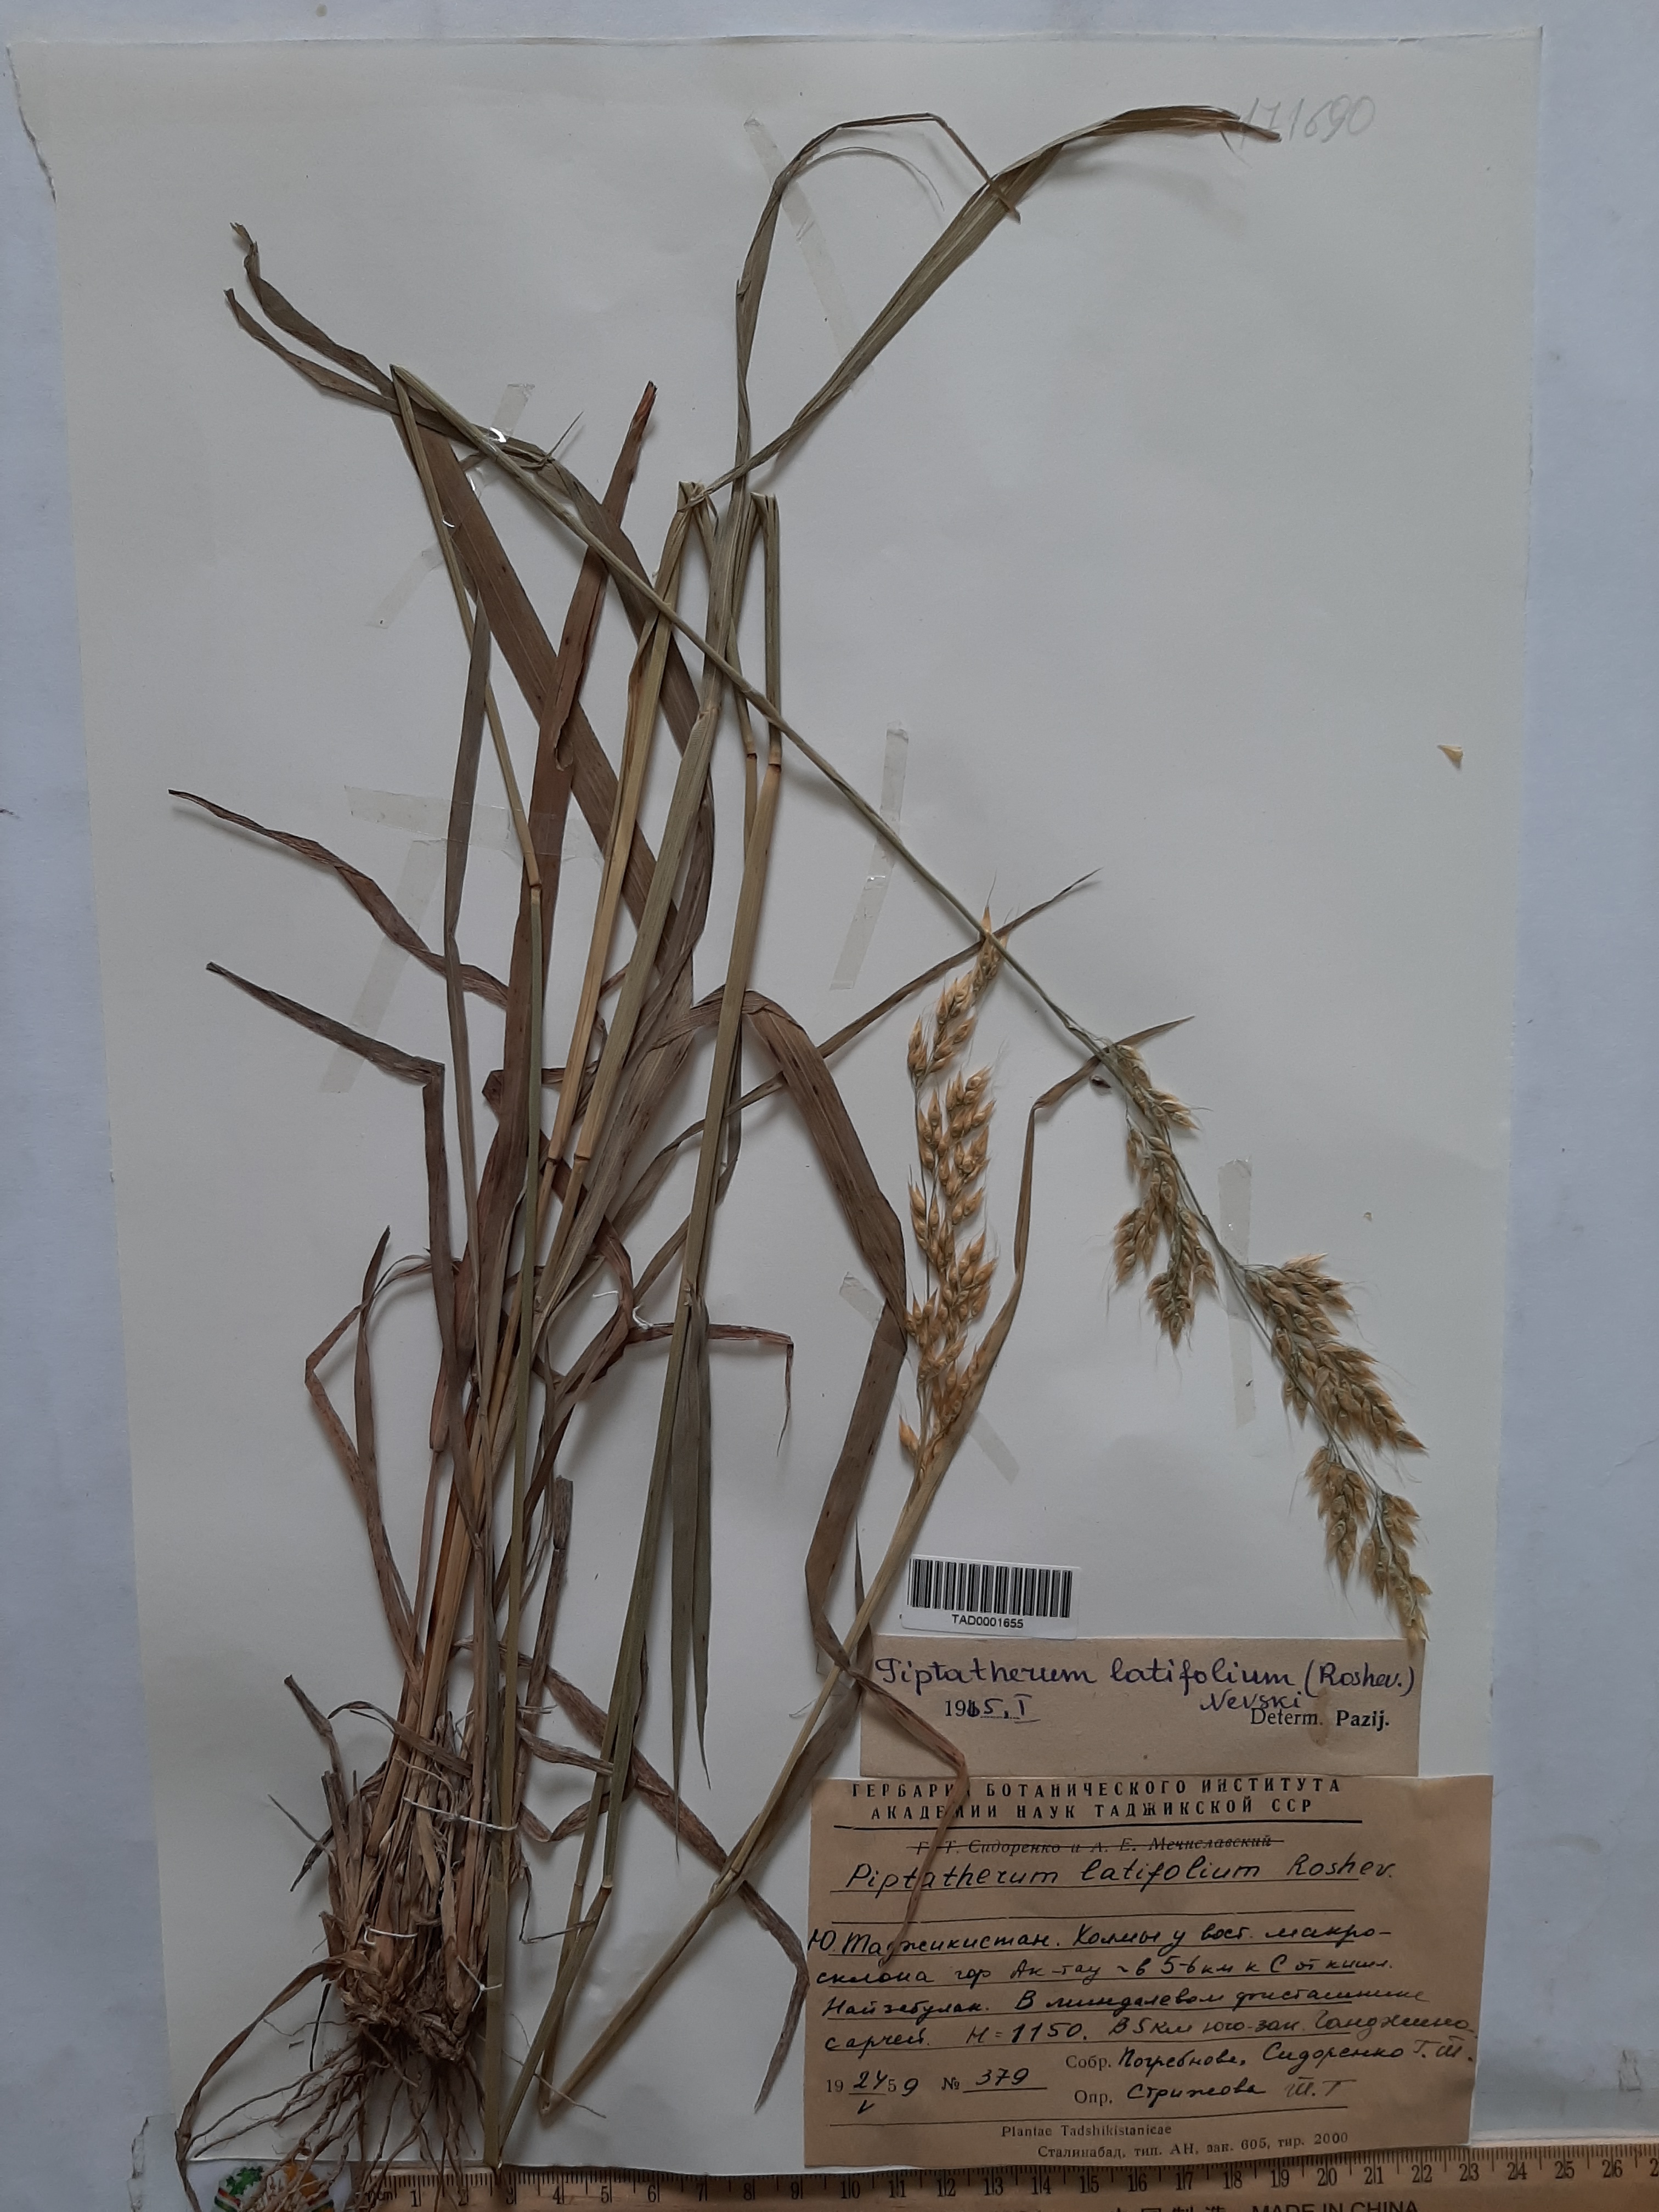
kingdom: Plantae
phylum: Tracheophyta
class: Liliopsida
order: Poales
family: Poaceae
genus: Piptatherum
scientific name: Piptatherum latifolium
